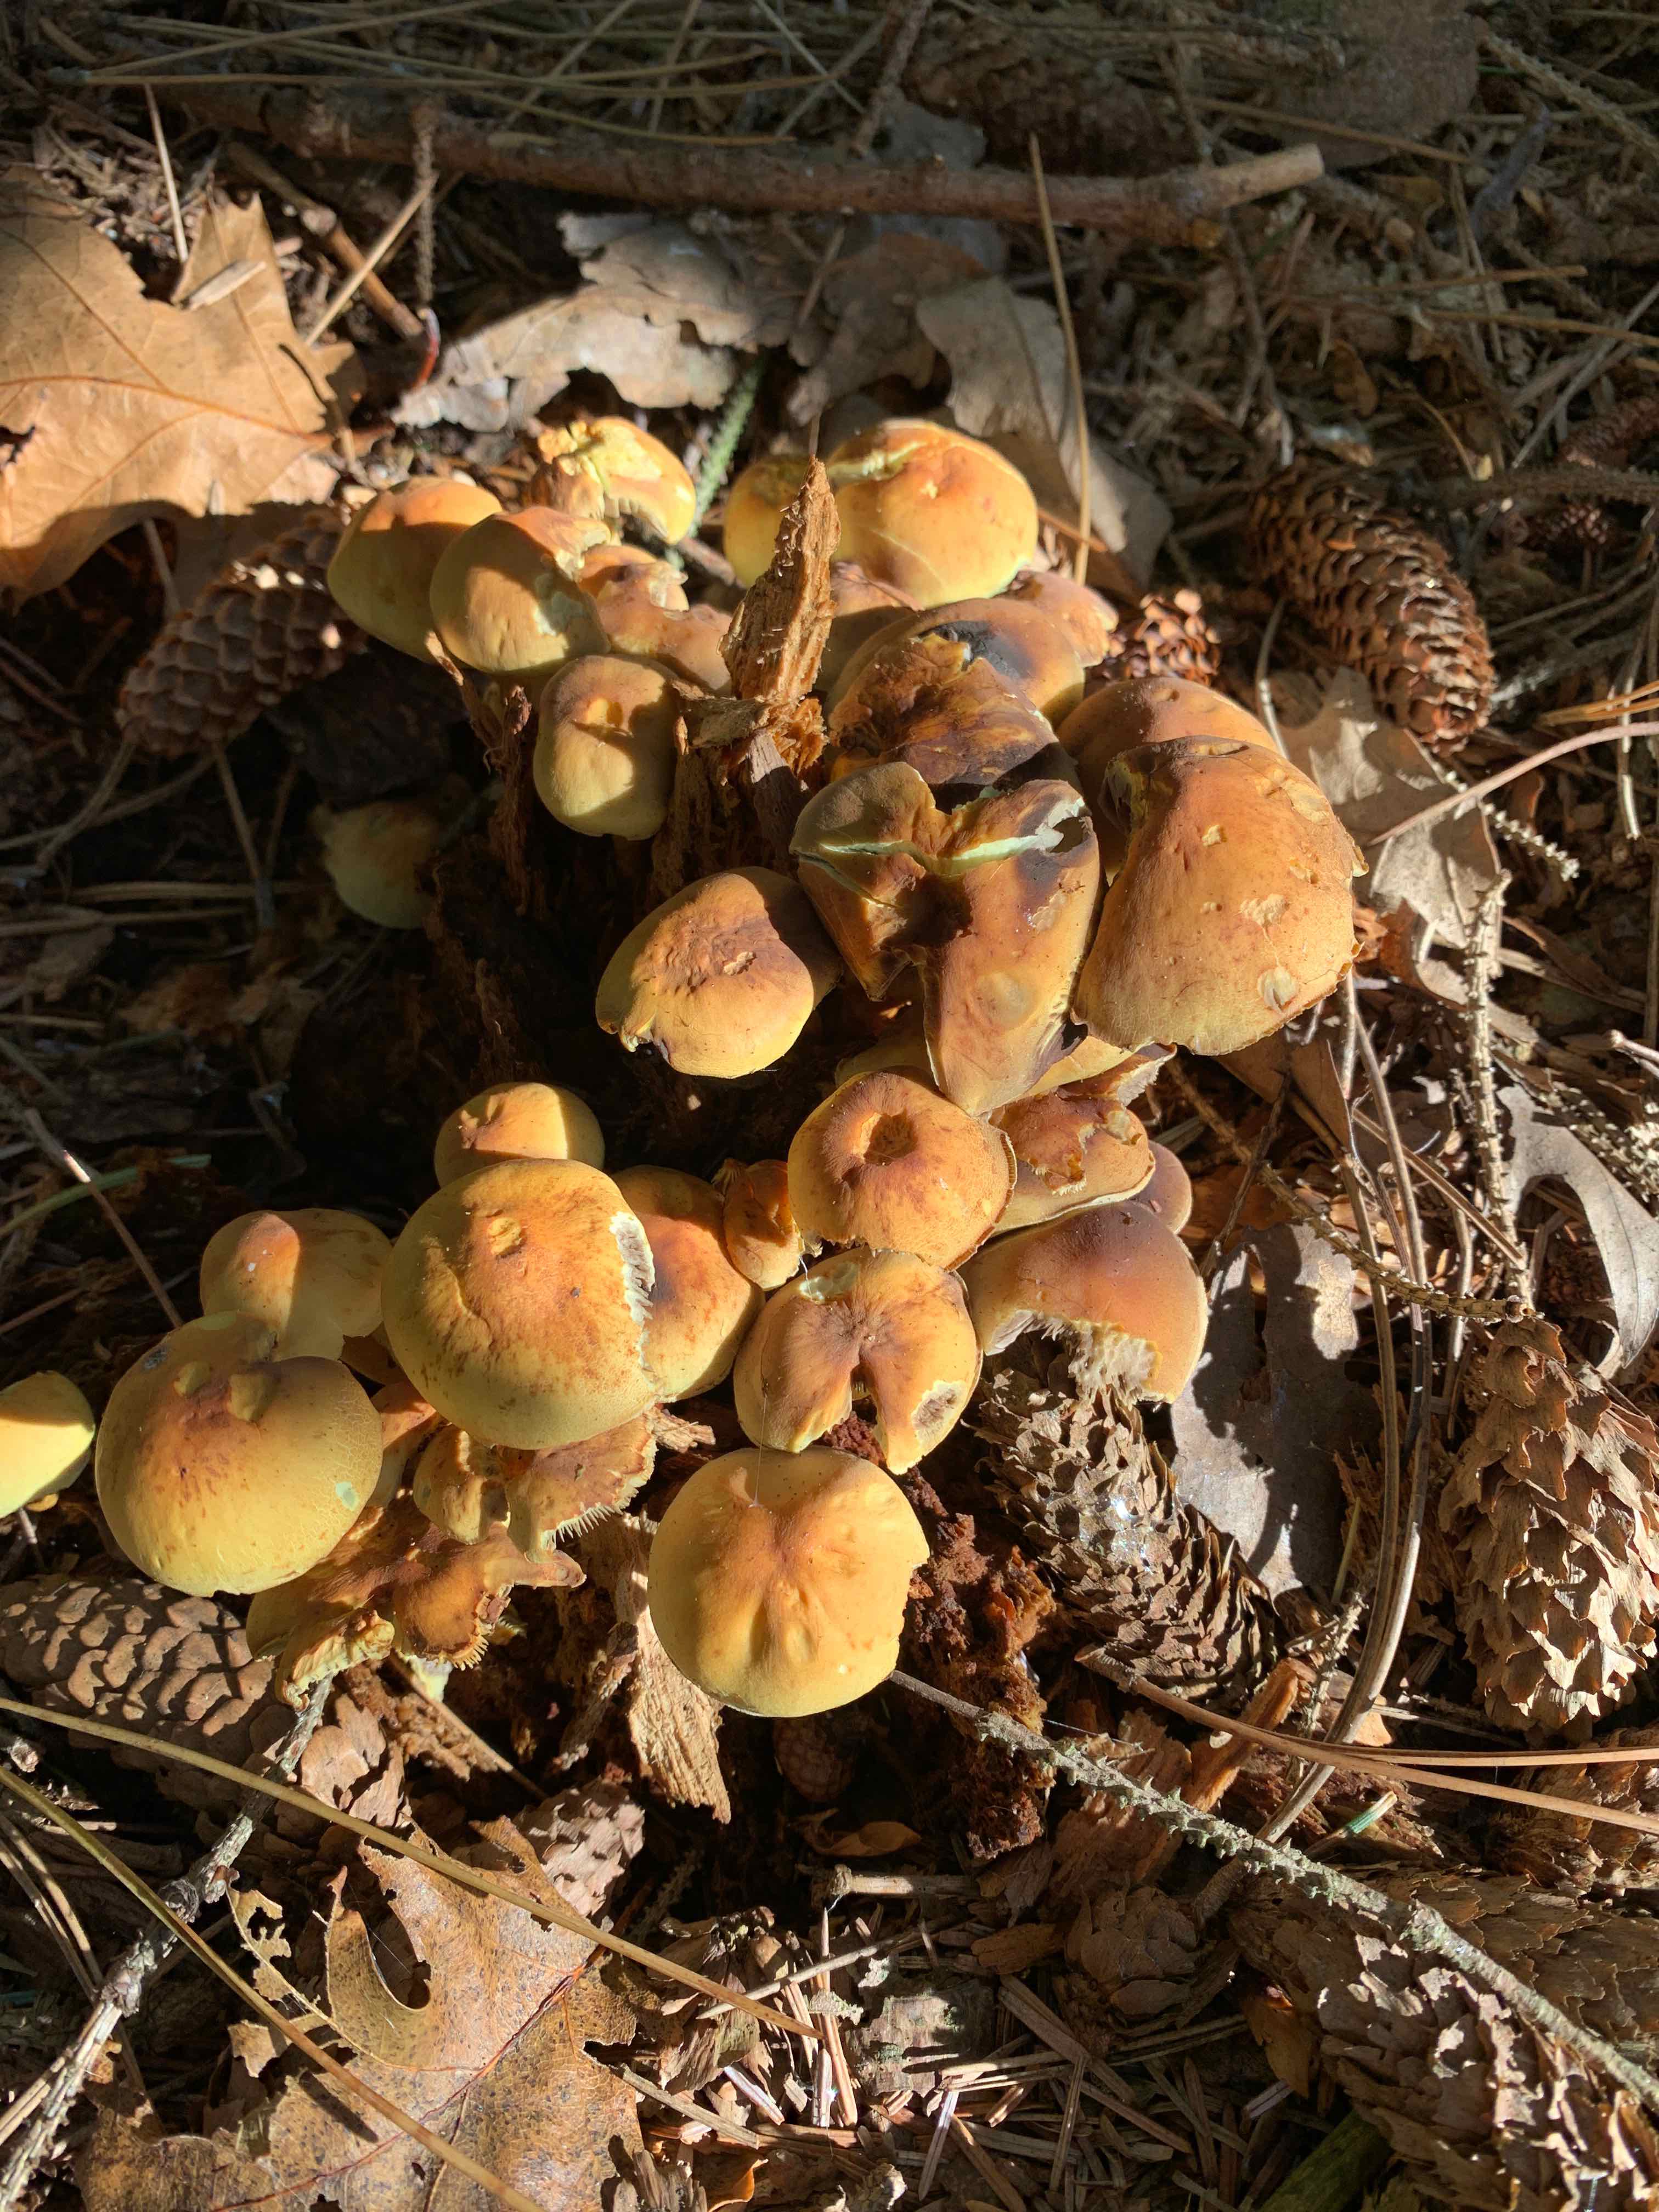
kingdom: Fungi
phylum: Basidiomycota
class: Agaricomycetes
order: Agaricales
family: Strophariaceae
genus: Hypholoma
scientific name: Hypholoma fasciculare
